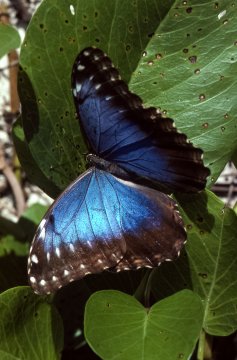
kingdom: Animalia
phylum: Arthropoda
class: Insecta
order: Lepidoptera
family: Nymphalidae
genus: Morpho
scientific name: Morpho helenor
